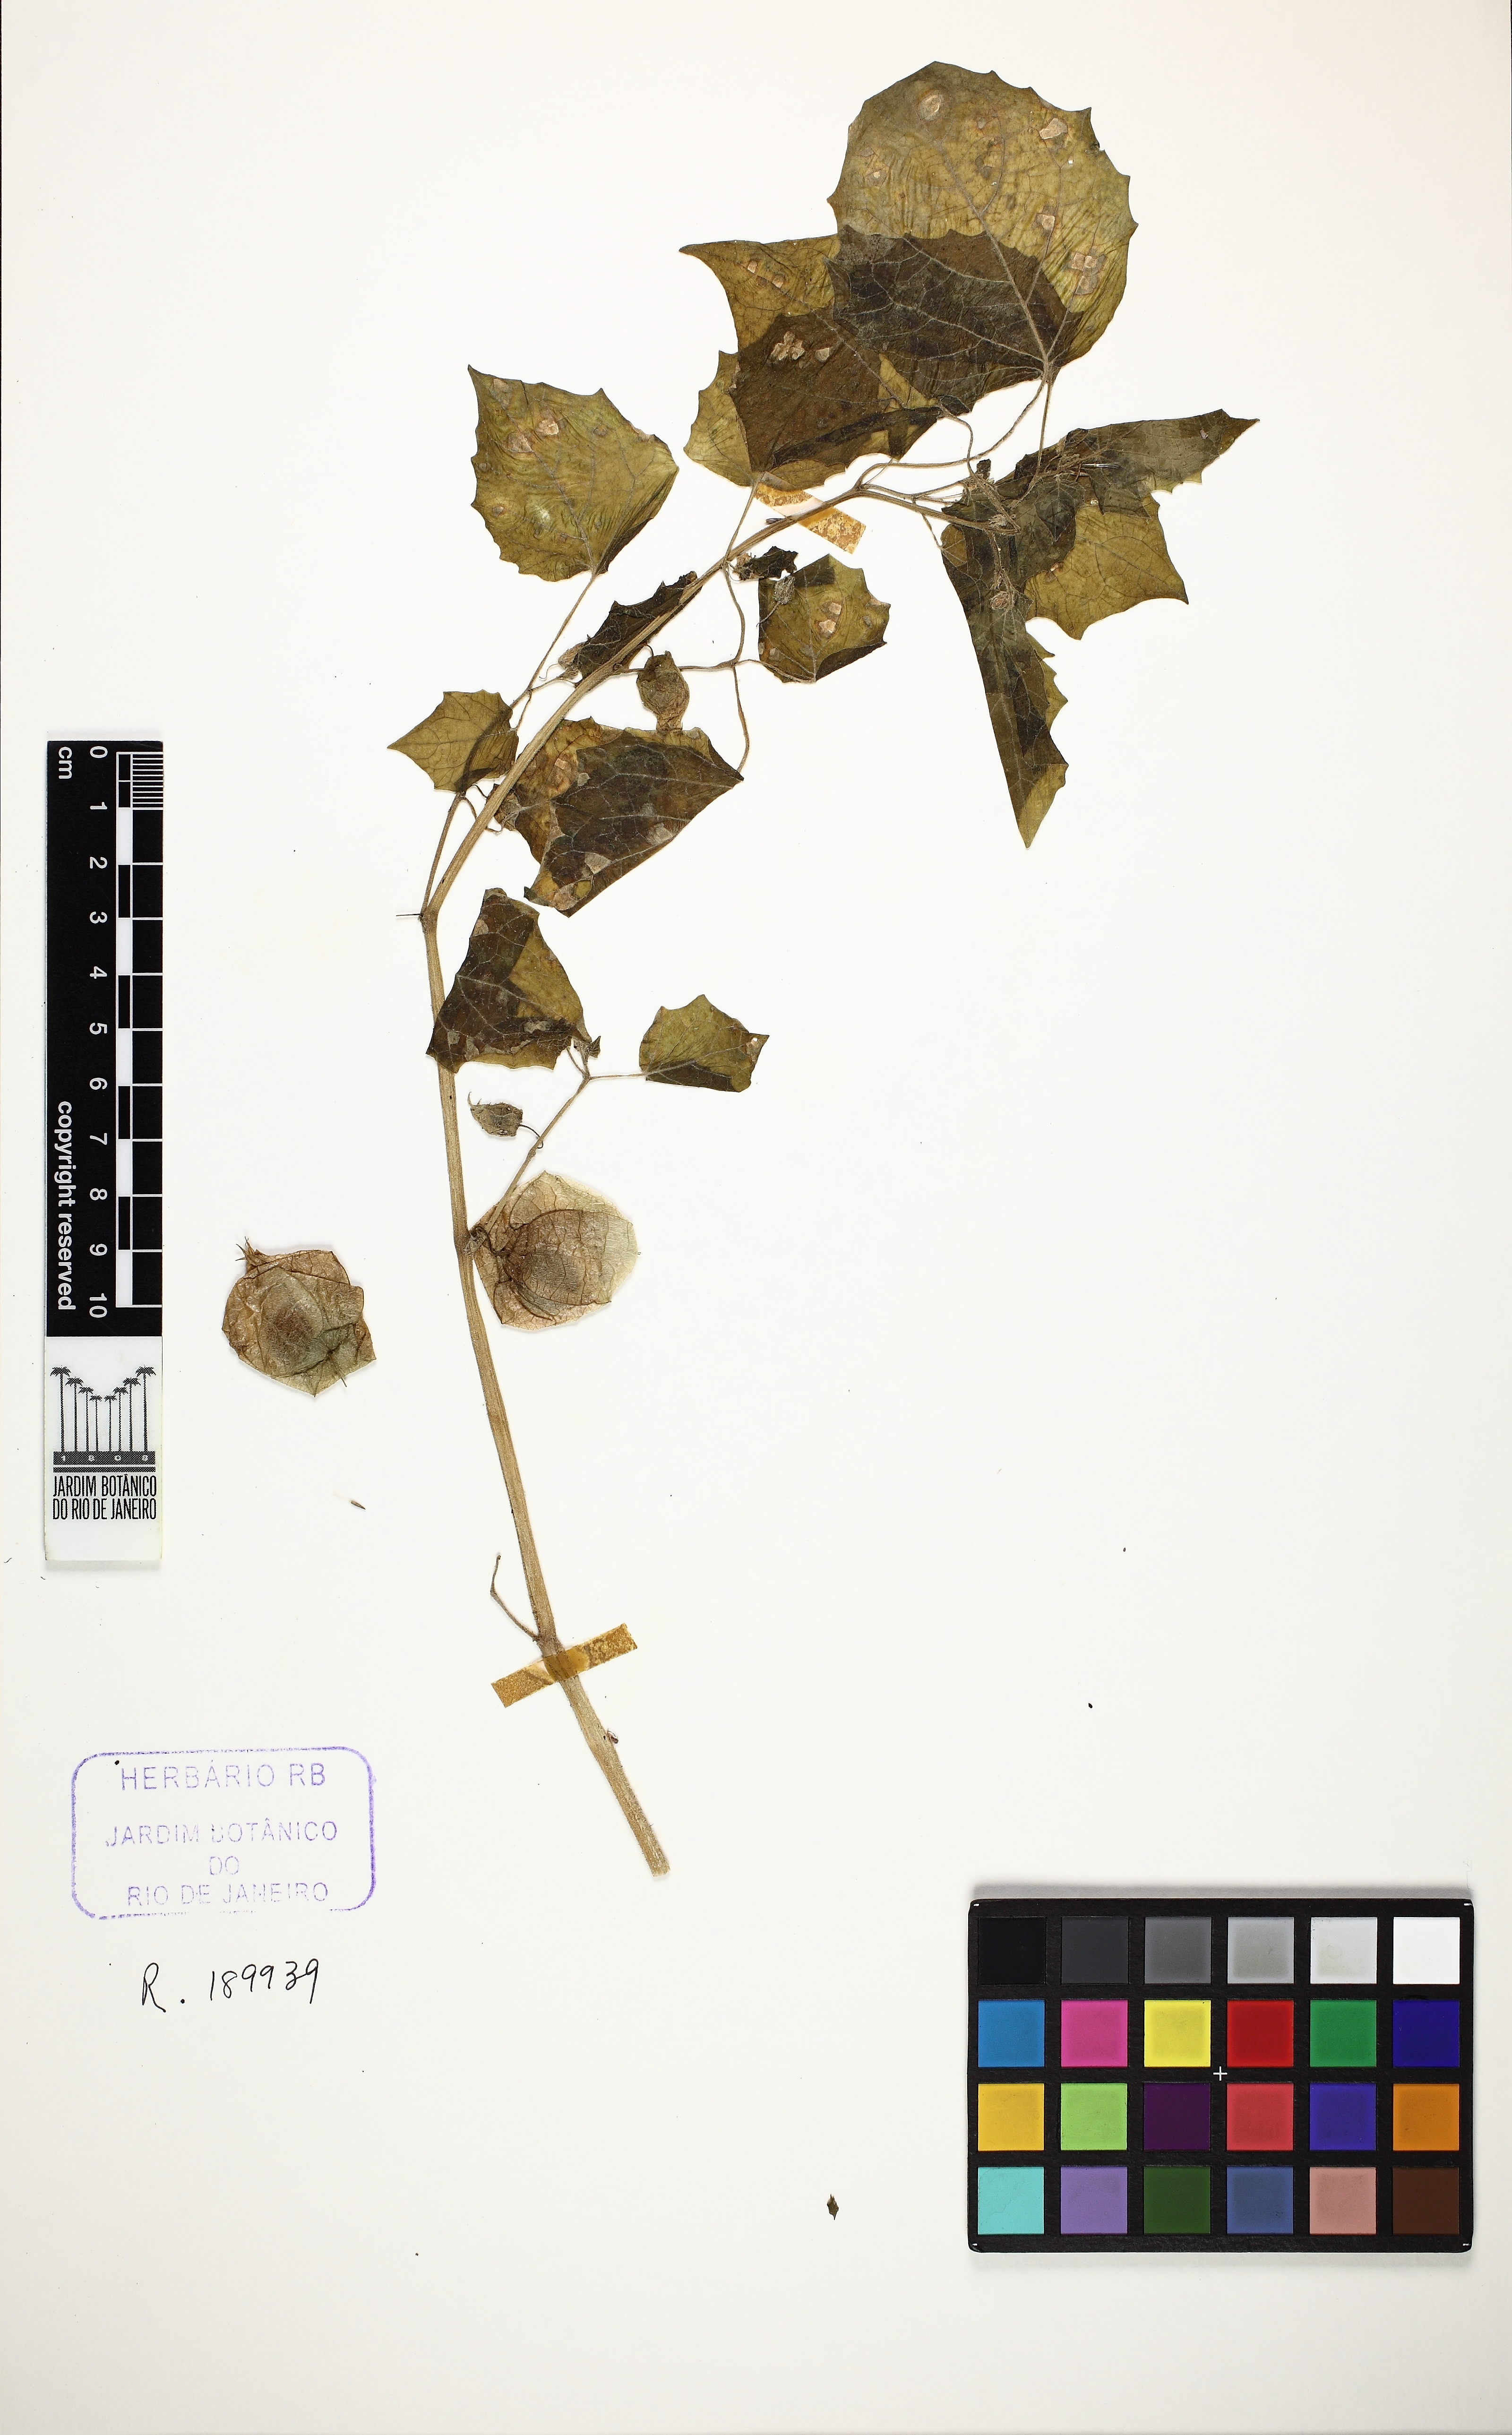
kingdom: Plantae
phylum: Tracheophyta
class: Magnoliopsida
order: Solanales
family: Solanaceae
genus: Physalis
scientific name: Physalis pubescens
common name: Downy ground-cherry
